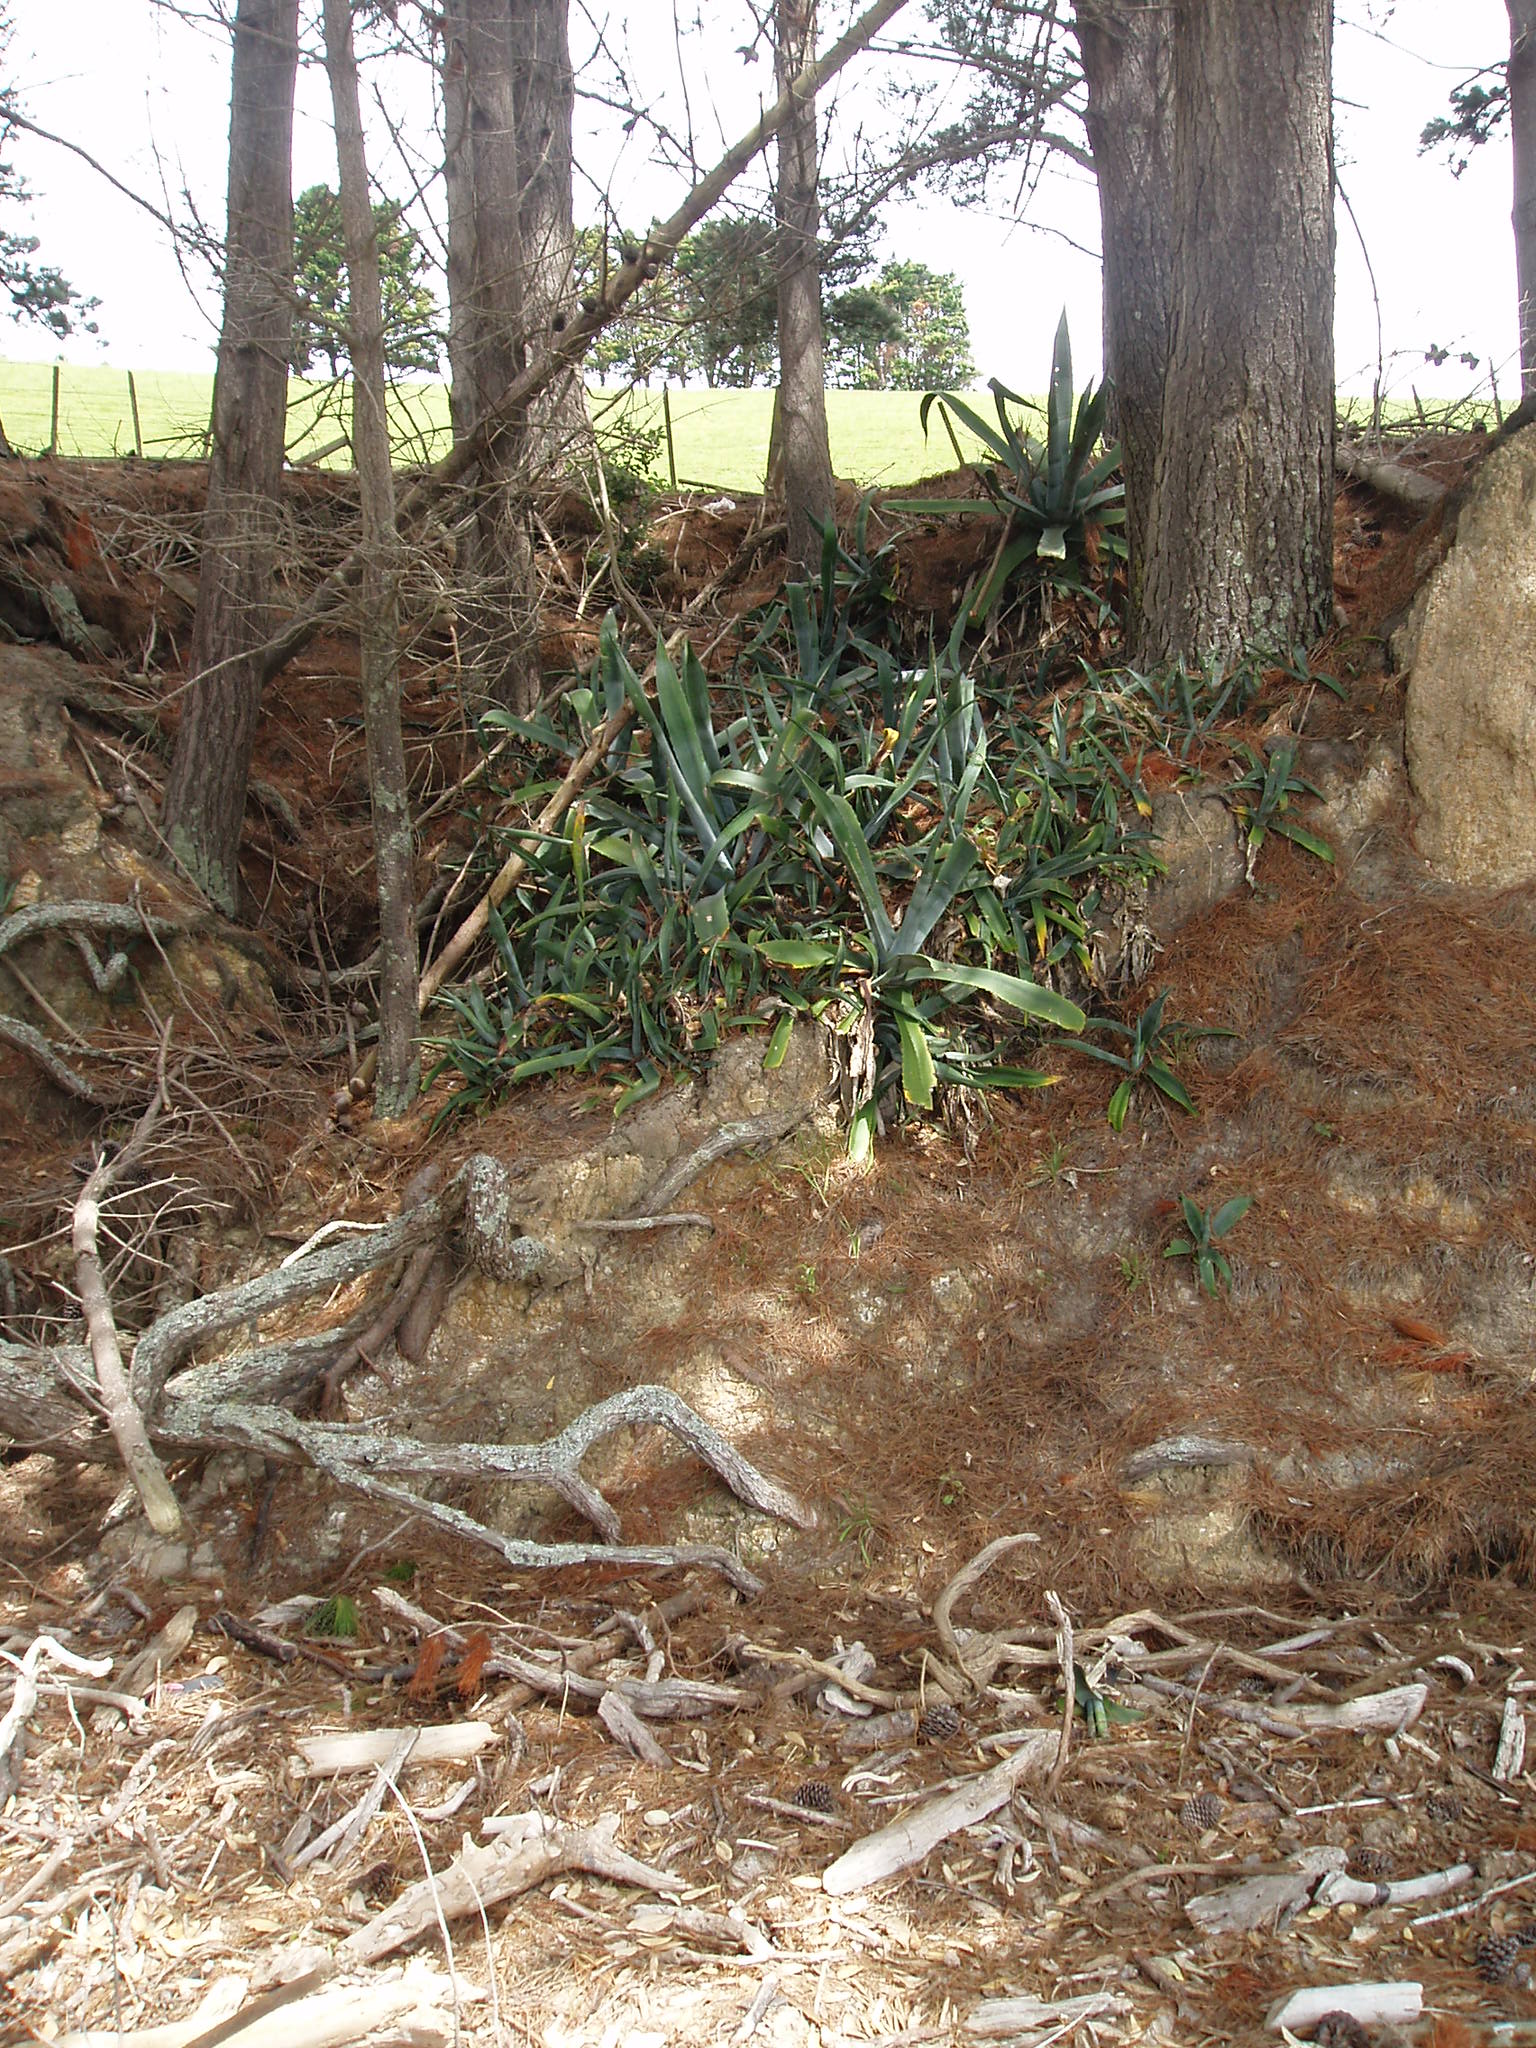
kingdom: Plantae
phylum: Tracheophyta
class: Liliopsida
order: Asparagales
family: Asparagaceae
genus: Agave
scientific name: Agave americana
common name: Centuryplant
